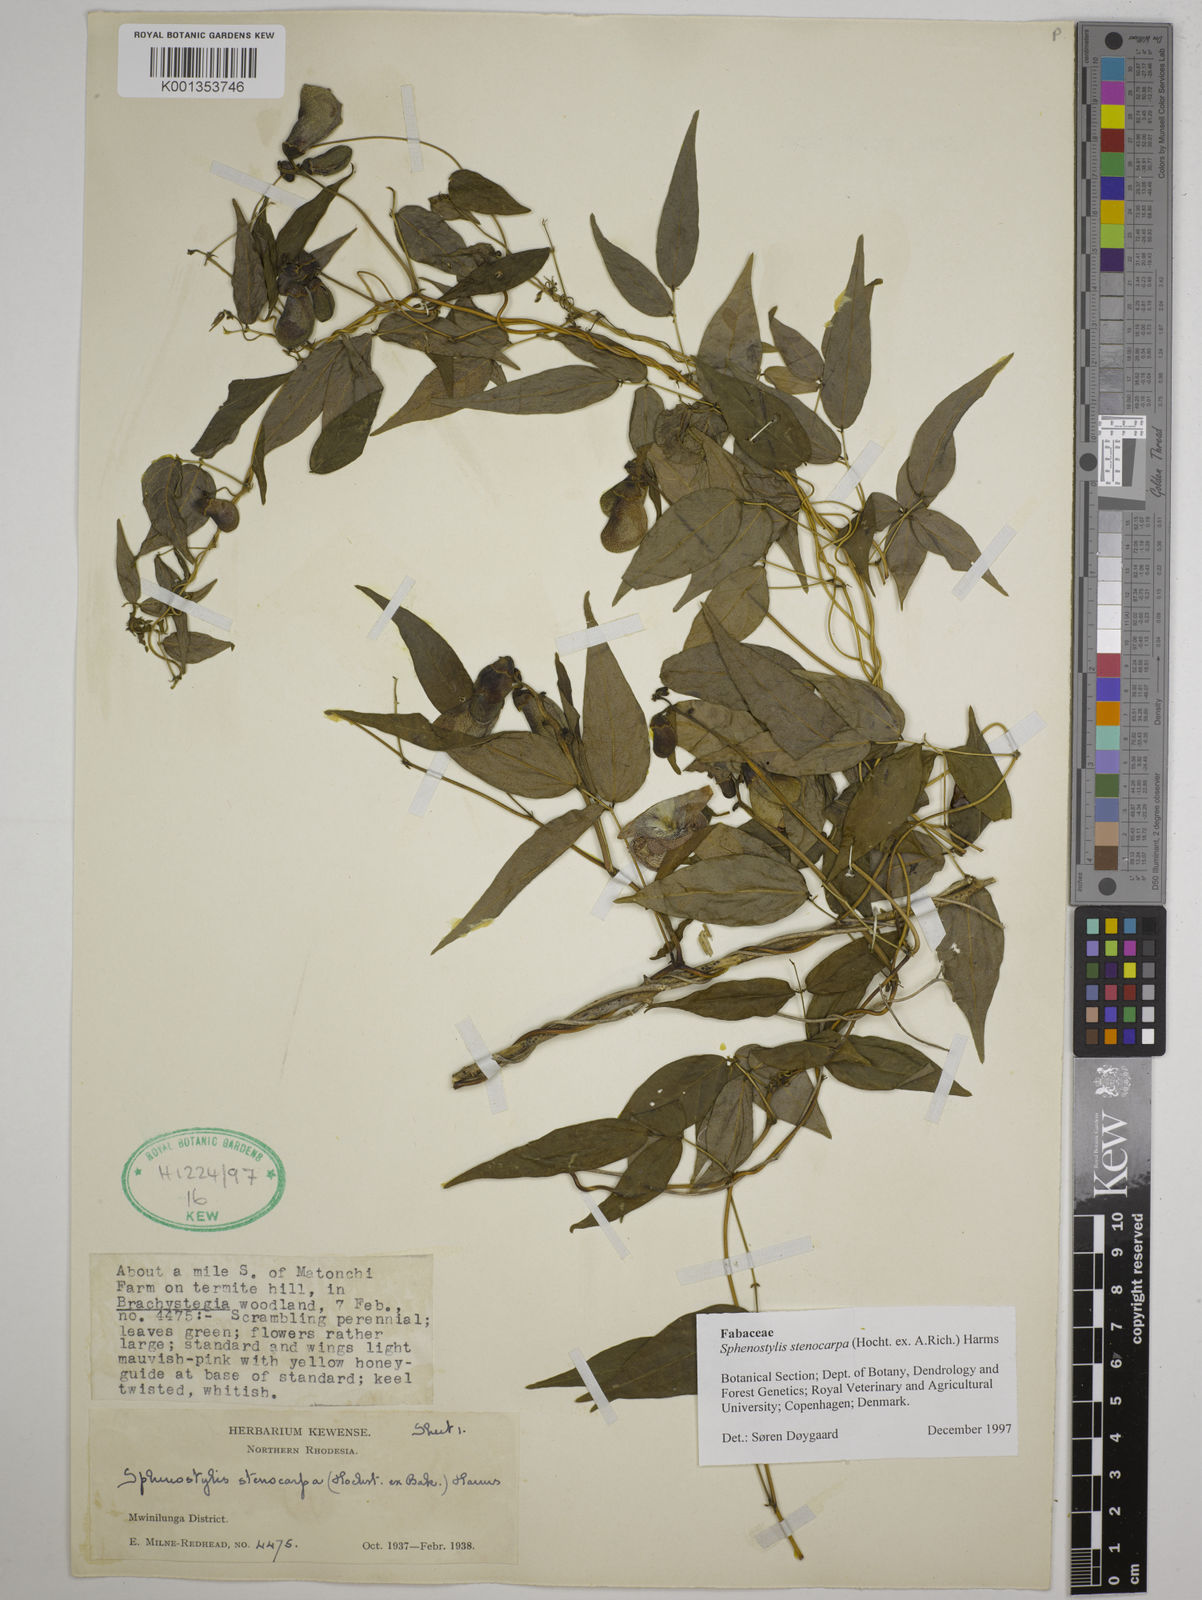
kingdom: Plantae
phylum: Tracheophyta
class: Magnoliopsida
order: Fabales
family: Fabaceae
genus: Sphenostylis
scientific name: Sphenostylis stenocarpa
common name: Yam-pea
